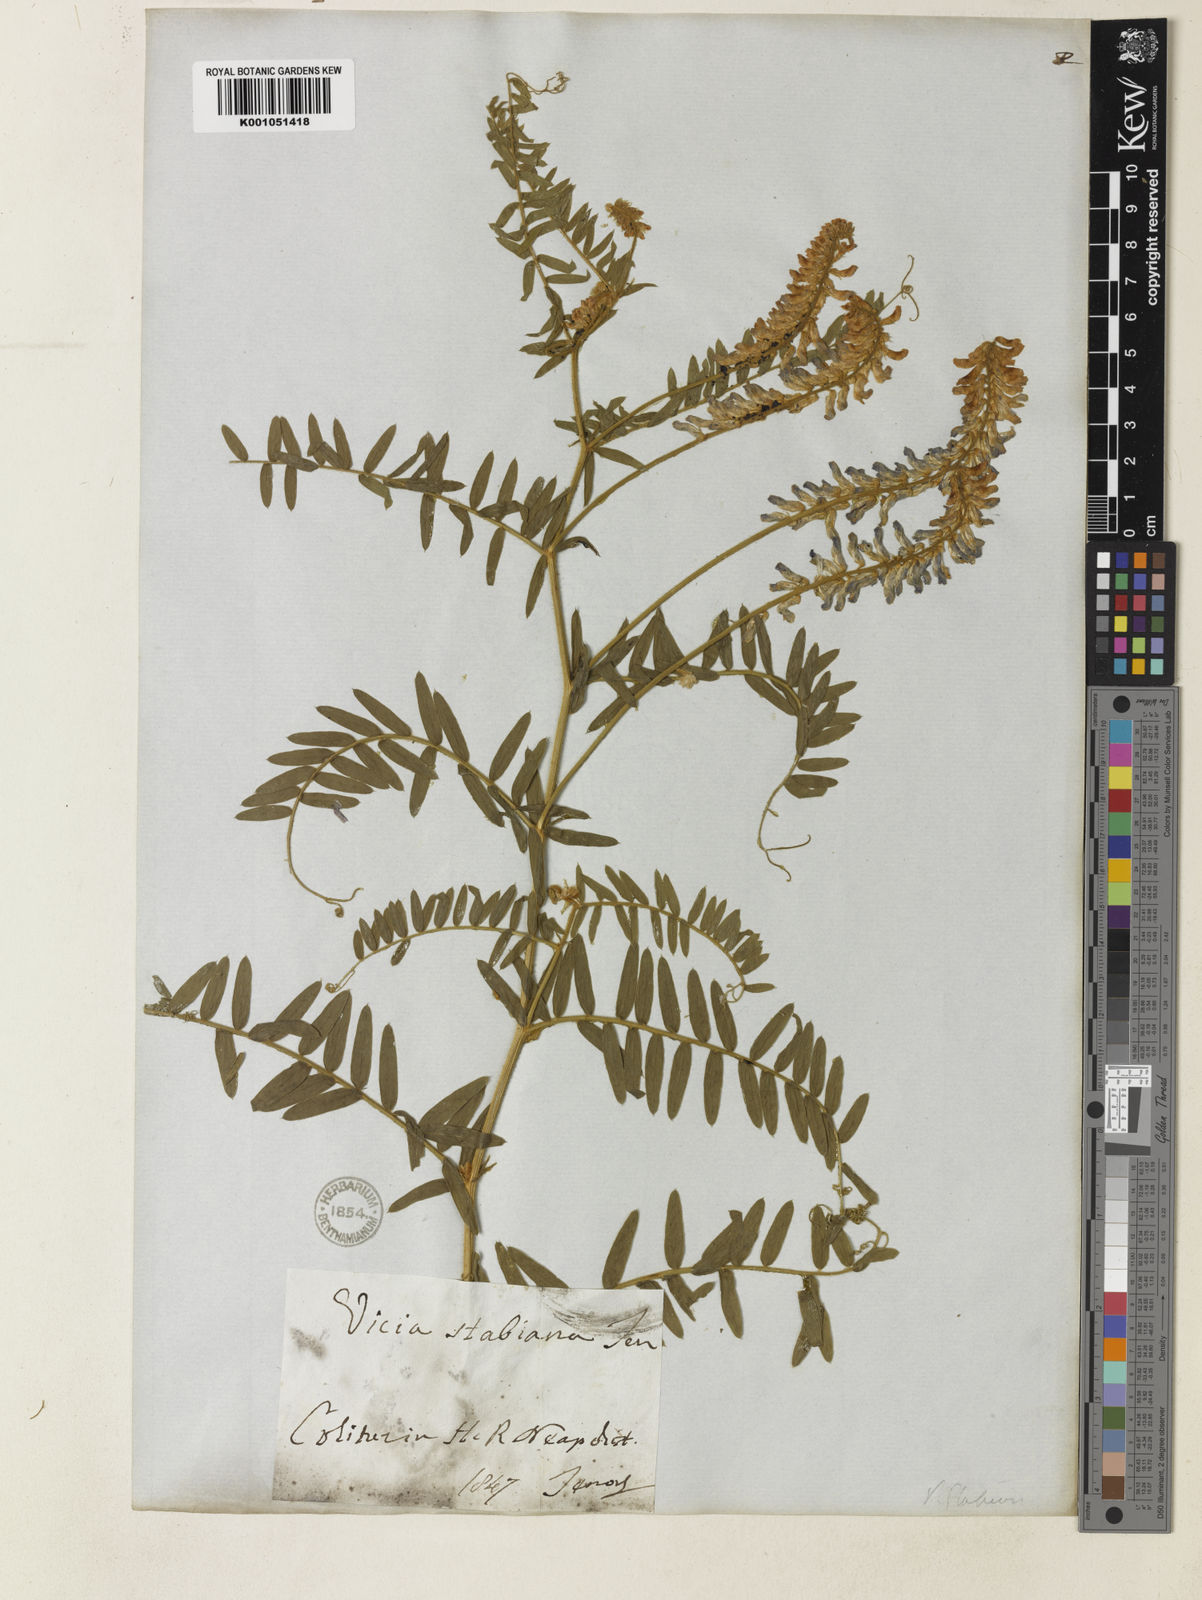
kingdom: Plantae
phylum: Tracheophyta
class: Magnoliopsida
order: Fabales
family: Fabaceae
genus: Vicia
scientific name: Vicia
